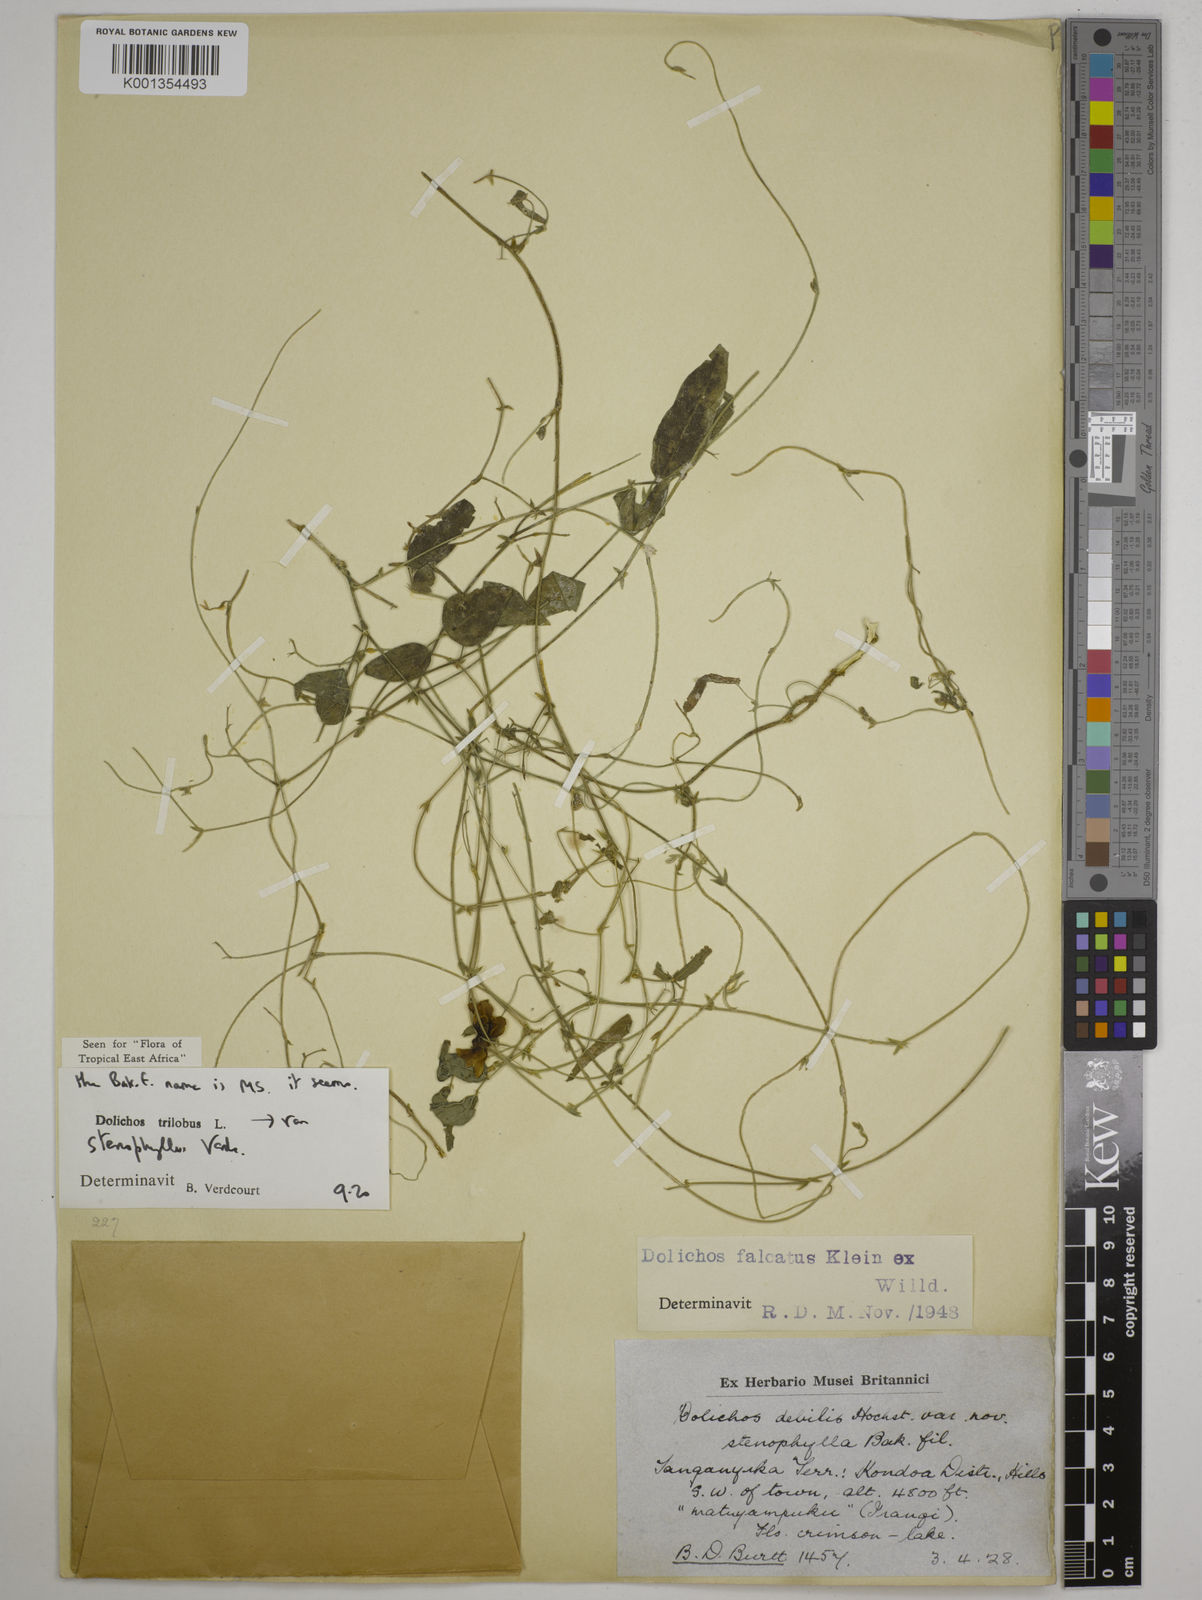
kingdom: Plantae
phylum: Tracheophyta
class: Magnoliopsida
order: Fabales
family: Fabaceae
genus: Dolichos
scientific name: Dolichos
